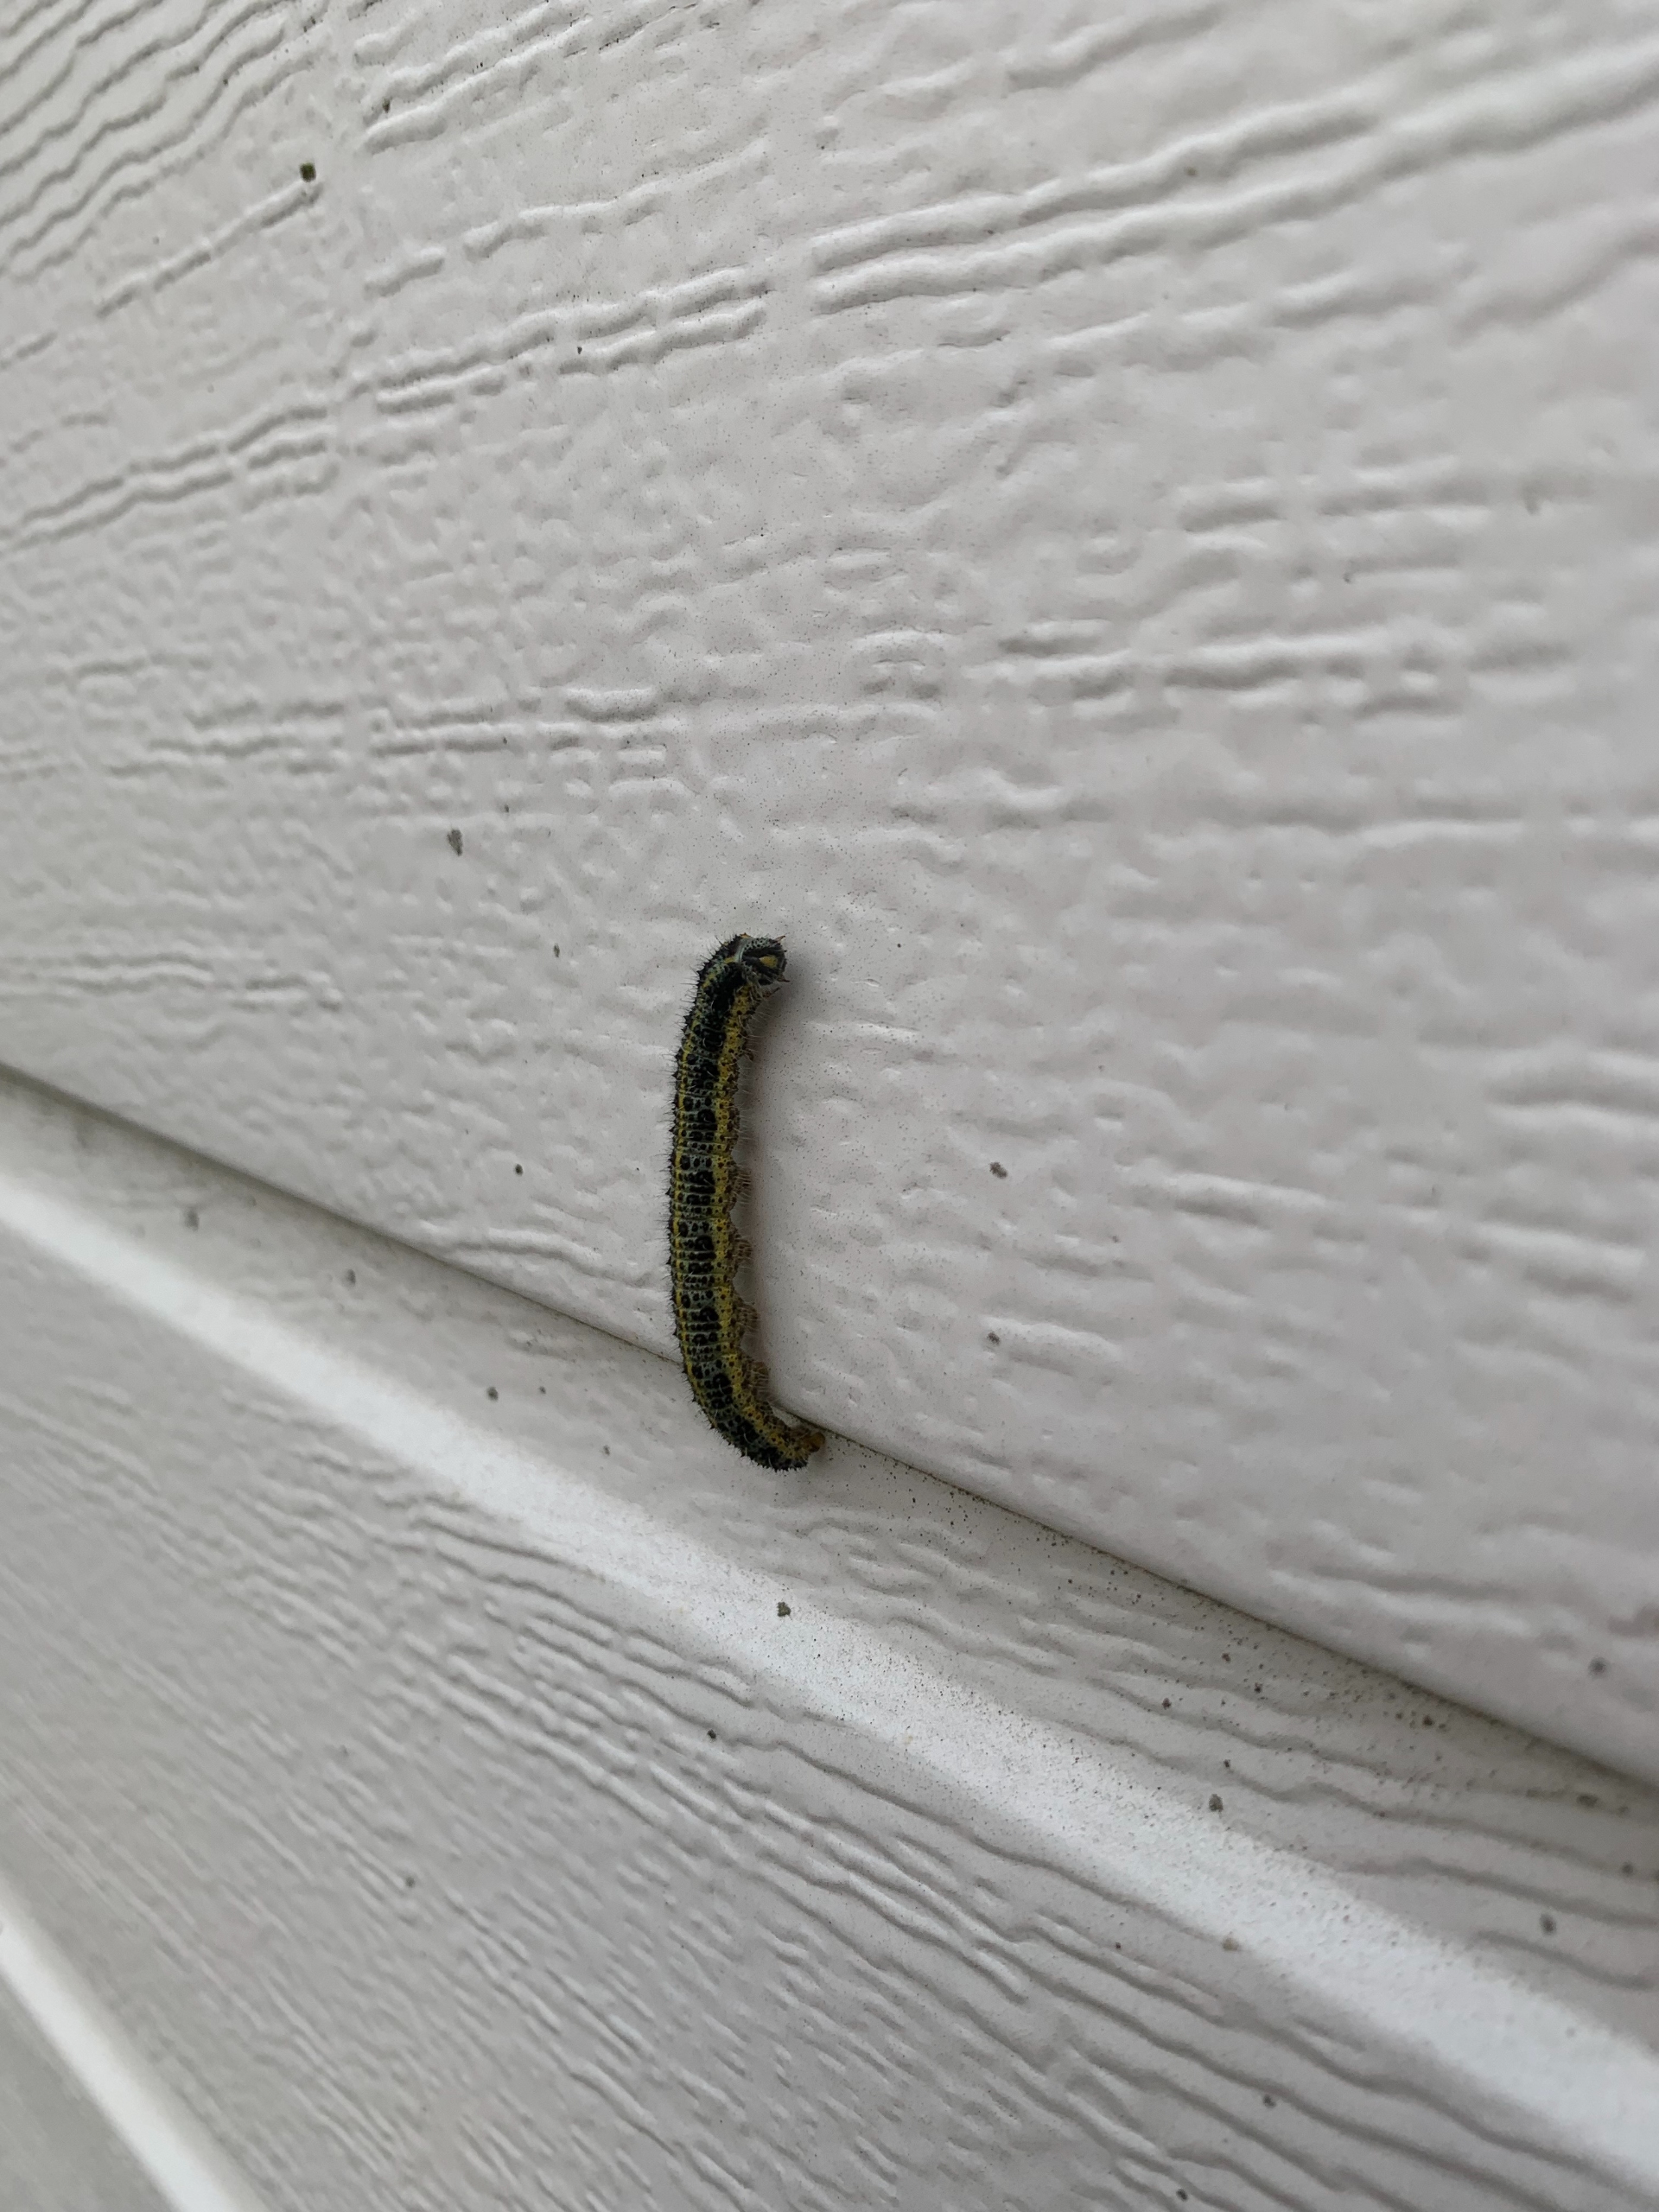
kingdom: Animalia
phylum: Arthropoda
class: Insecta
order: Lepidoptera
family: Pieridae
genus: Pieris
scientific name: Pieris brassicae
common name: Stor kålsommerfugl
